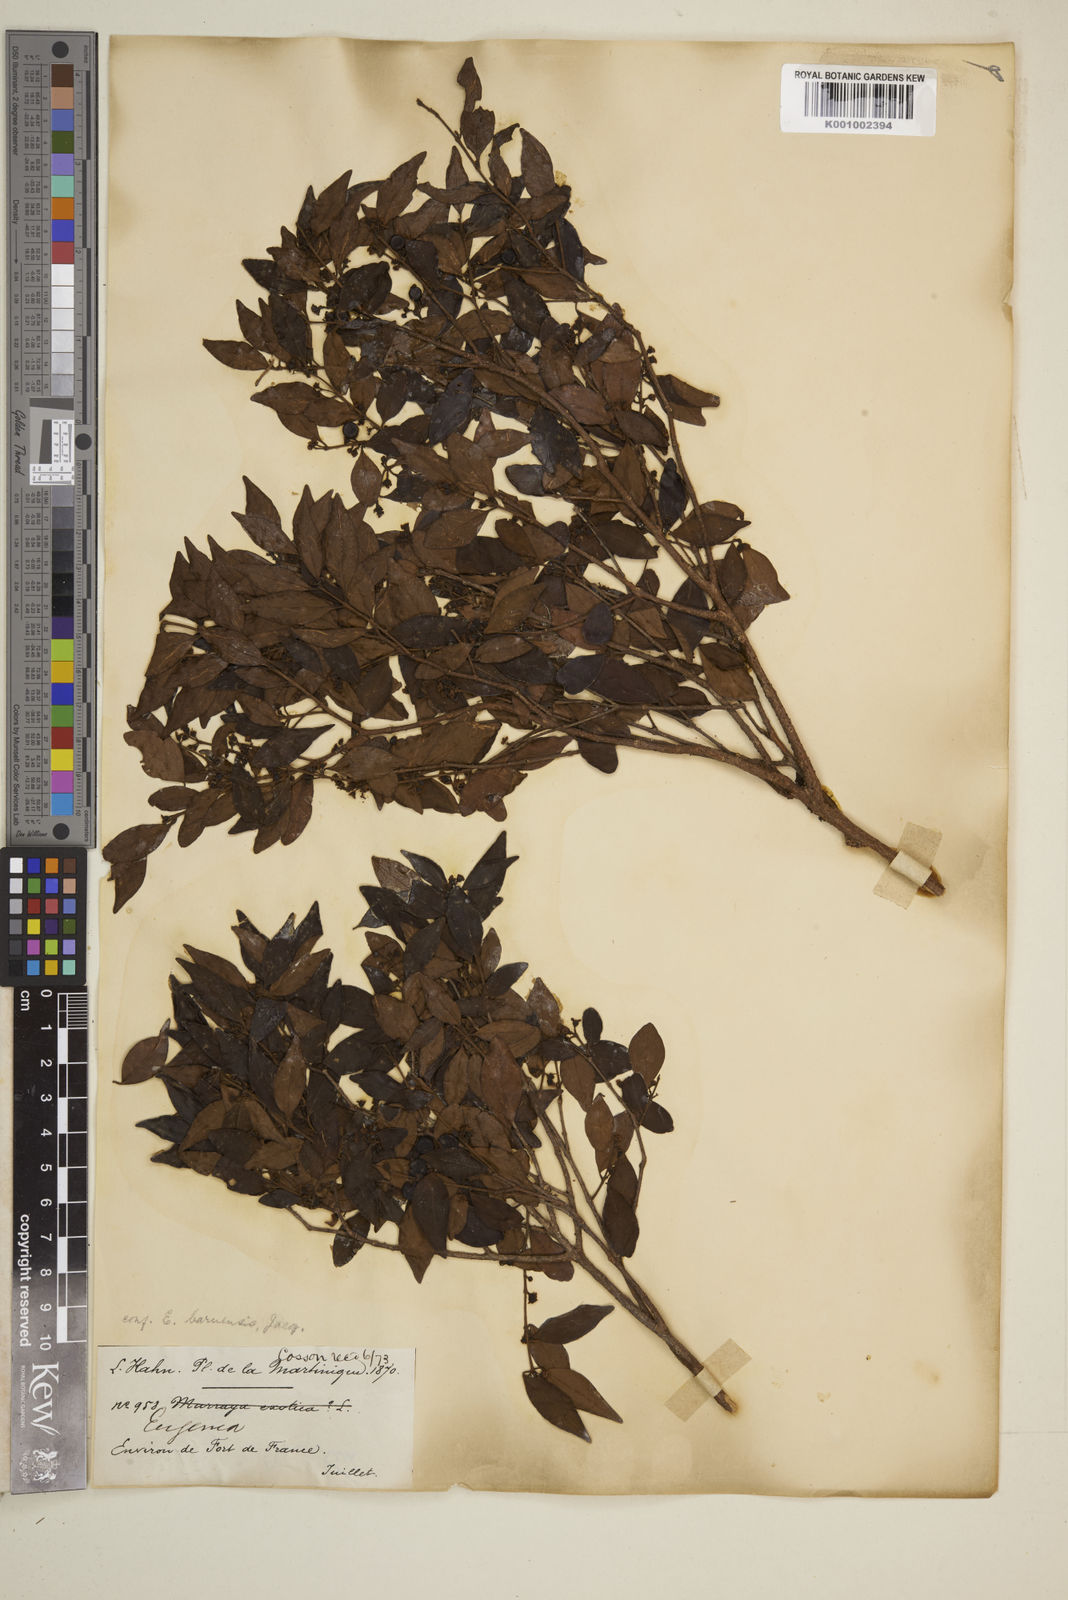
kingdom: Plantae
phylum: Tracheophyta
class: Magnoliopsida
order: Myrtales
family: Myrtaceae
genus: Eugenia
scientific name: Eugenia acapulcensis
